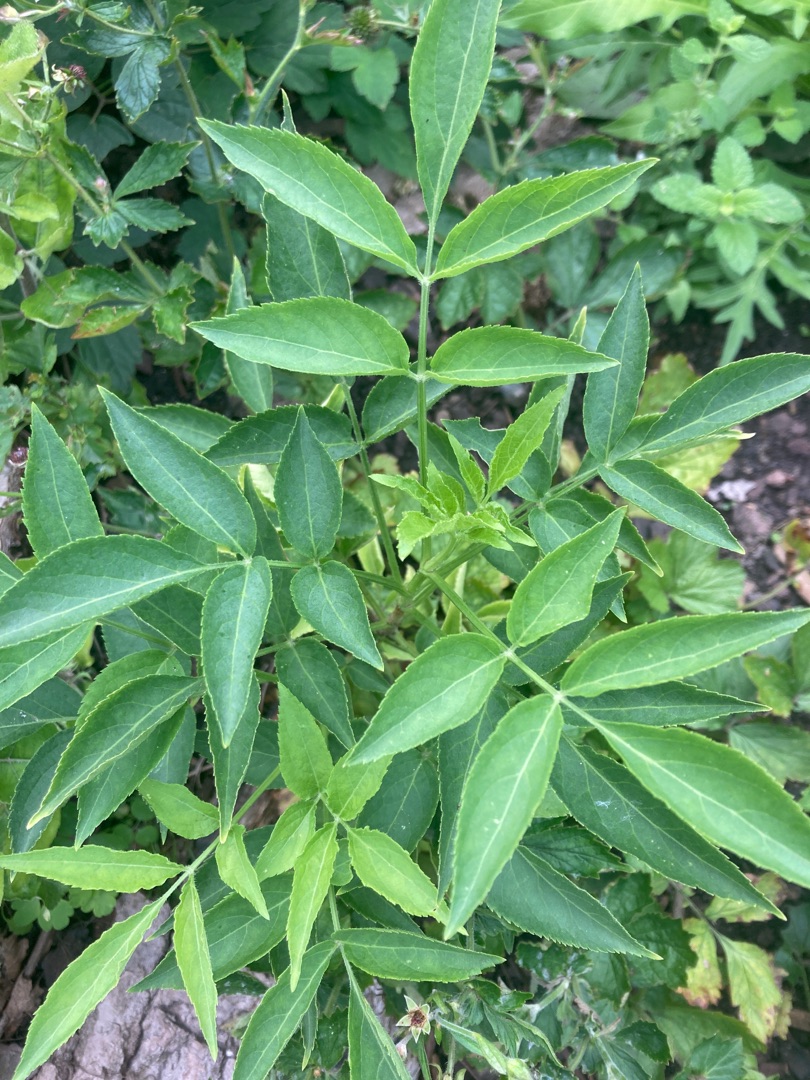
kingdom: Plantae
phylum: Tracheophyta
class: Magnoliopsida
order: Dipsacales
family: Viburnaceae
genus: Sambucus
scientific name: Sambucus nigra
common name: Almindelig hyld
